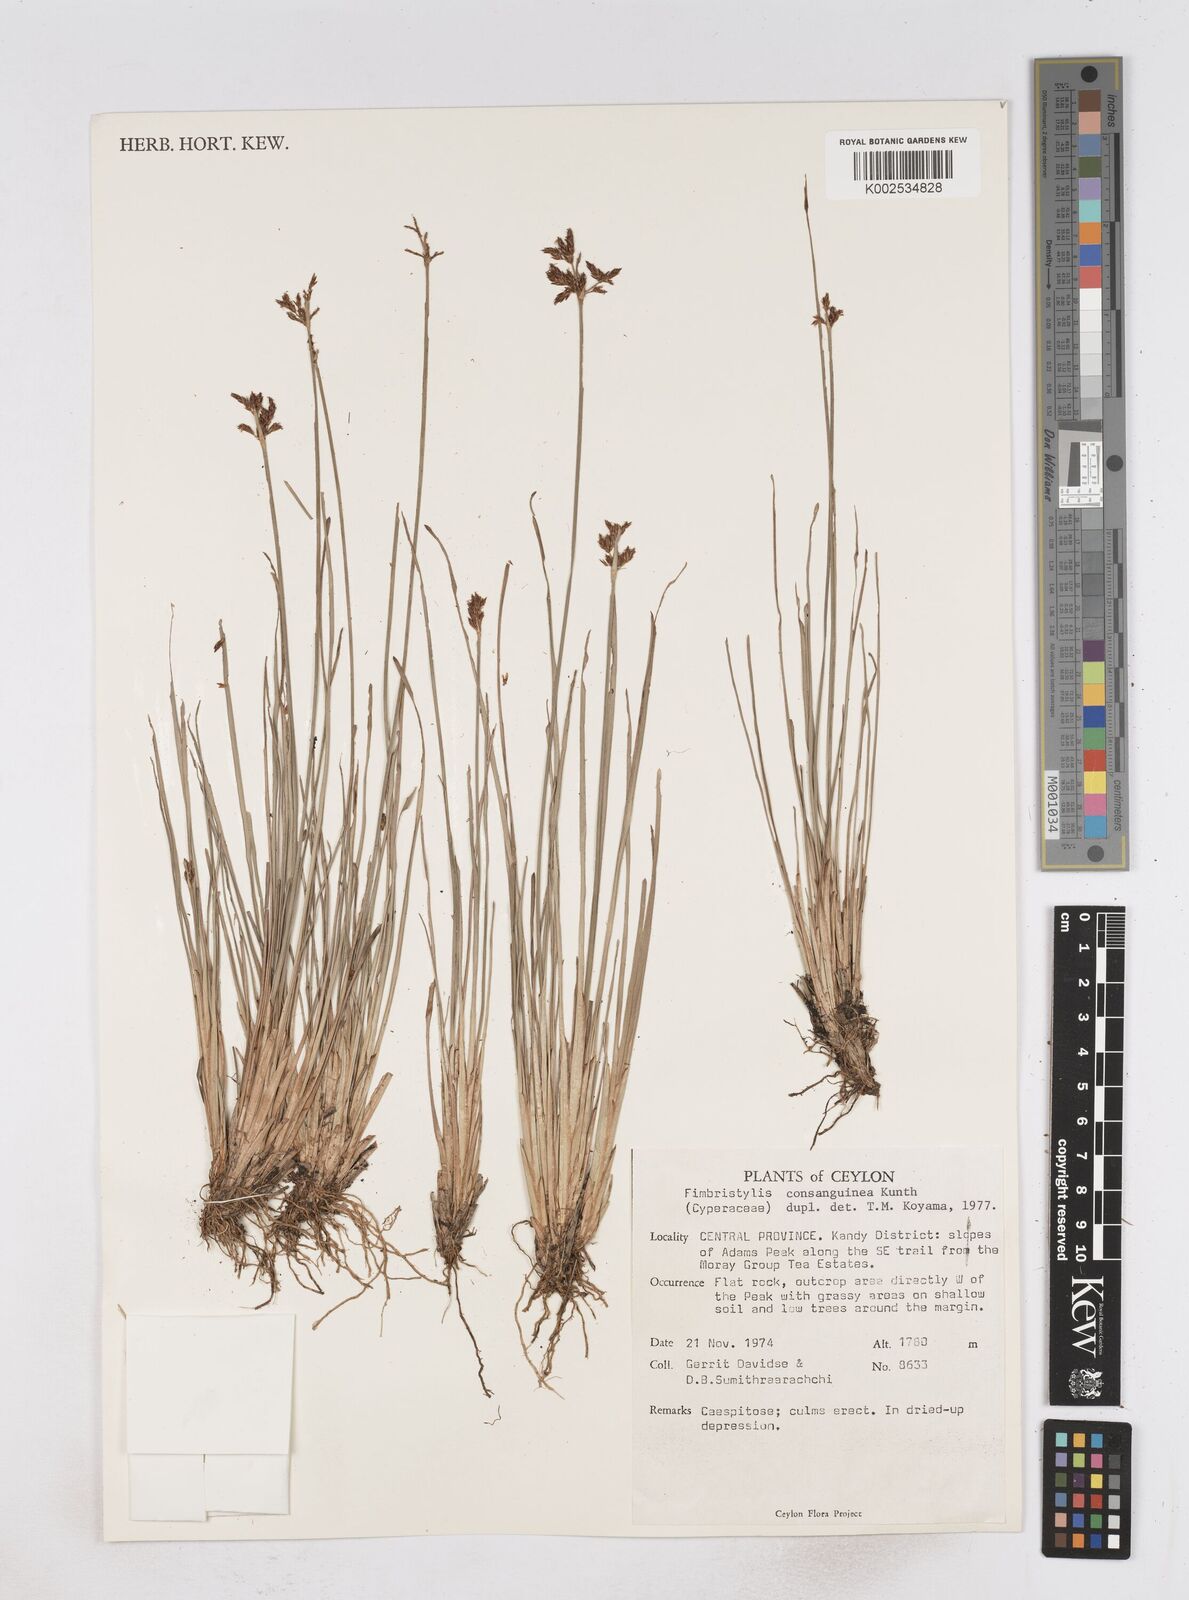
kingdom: Plantae
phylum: Tracheophyta
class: Liliopsida
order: Poales
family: Cyperaceae
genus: Fimbristylis
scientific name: Fimbristylis complanata
